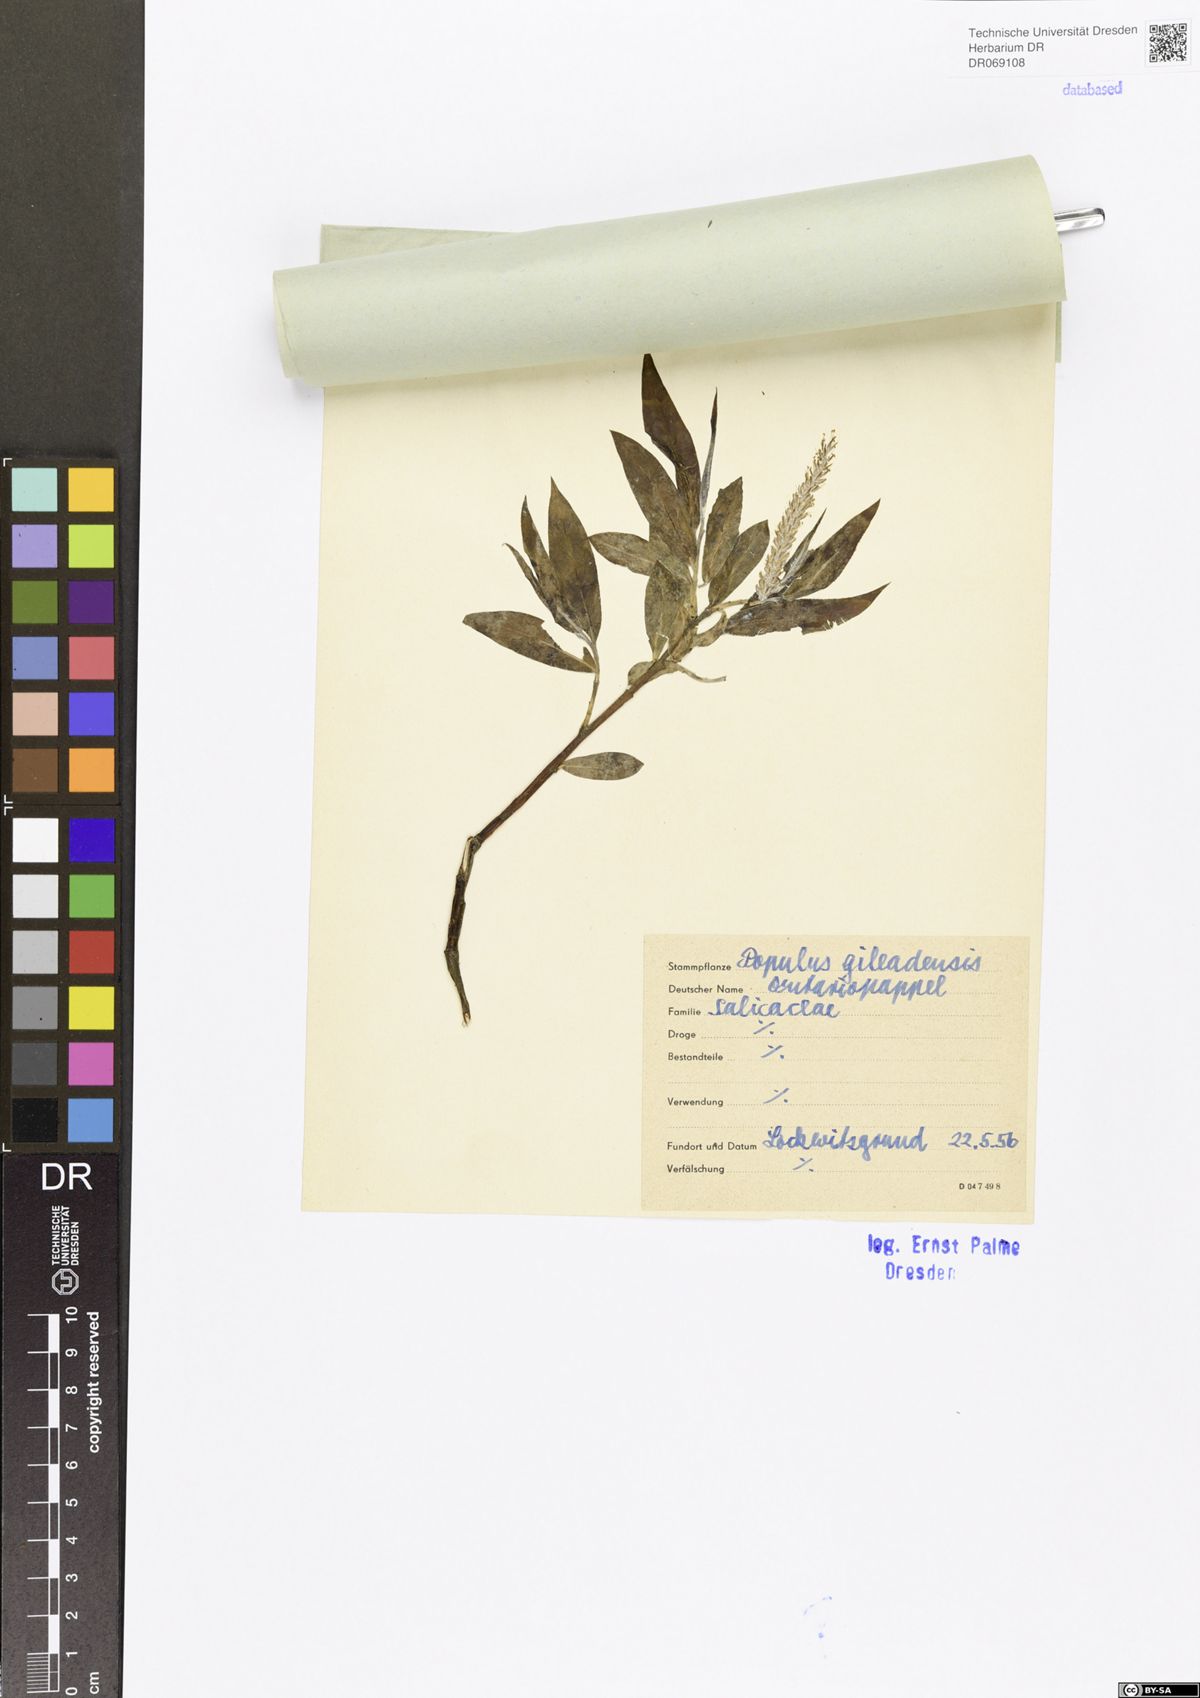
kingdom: Plantae
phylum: Tracheophyta
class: Magnoliopsida
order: Malpighiales
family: Salicaceae
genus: Populus
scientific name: Populus jackii
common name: Balm-of-gilead
